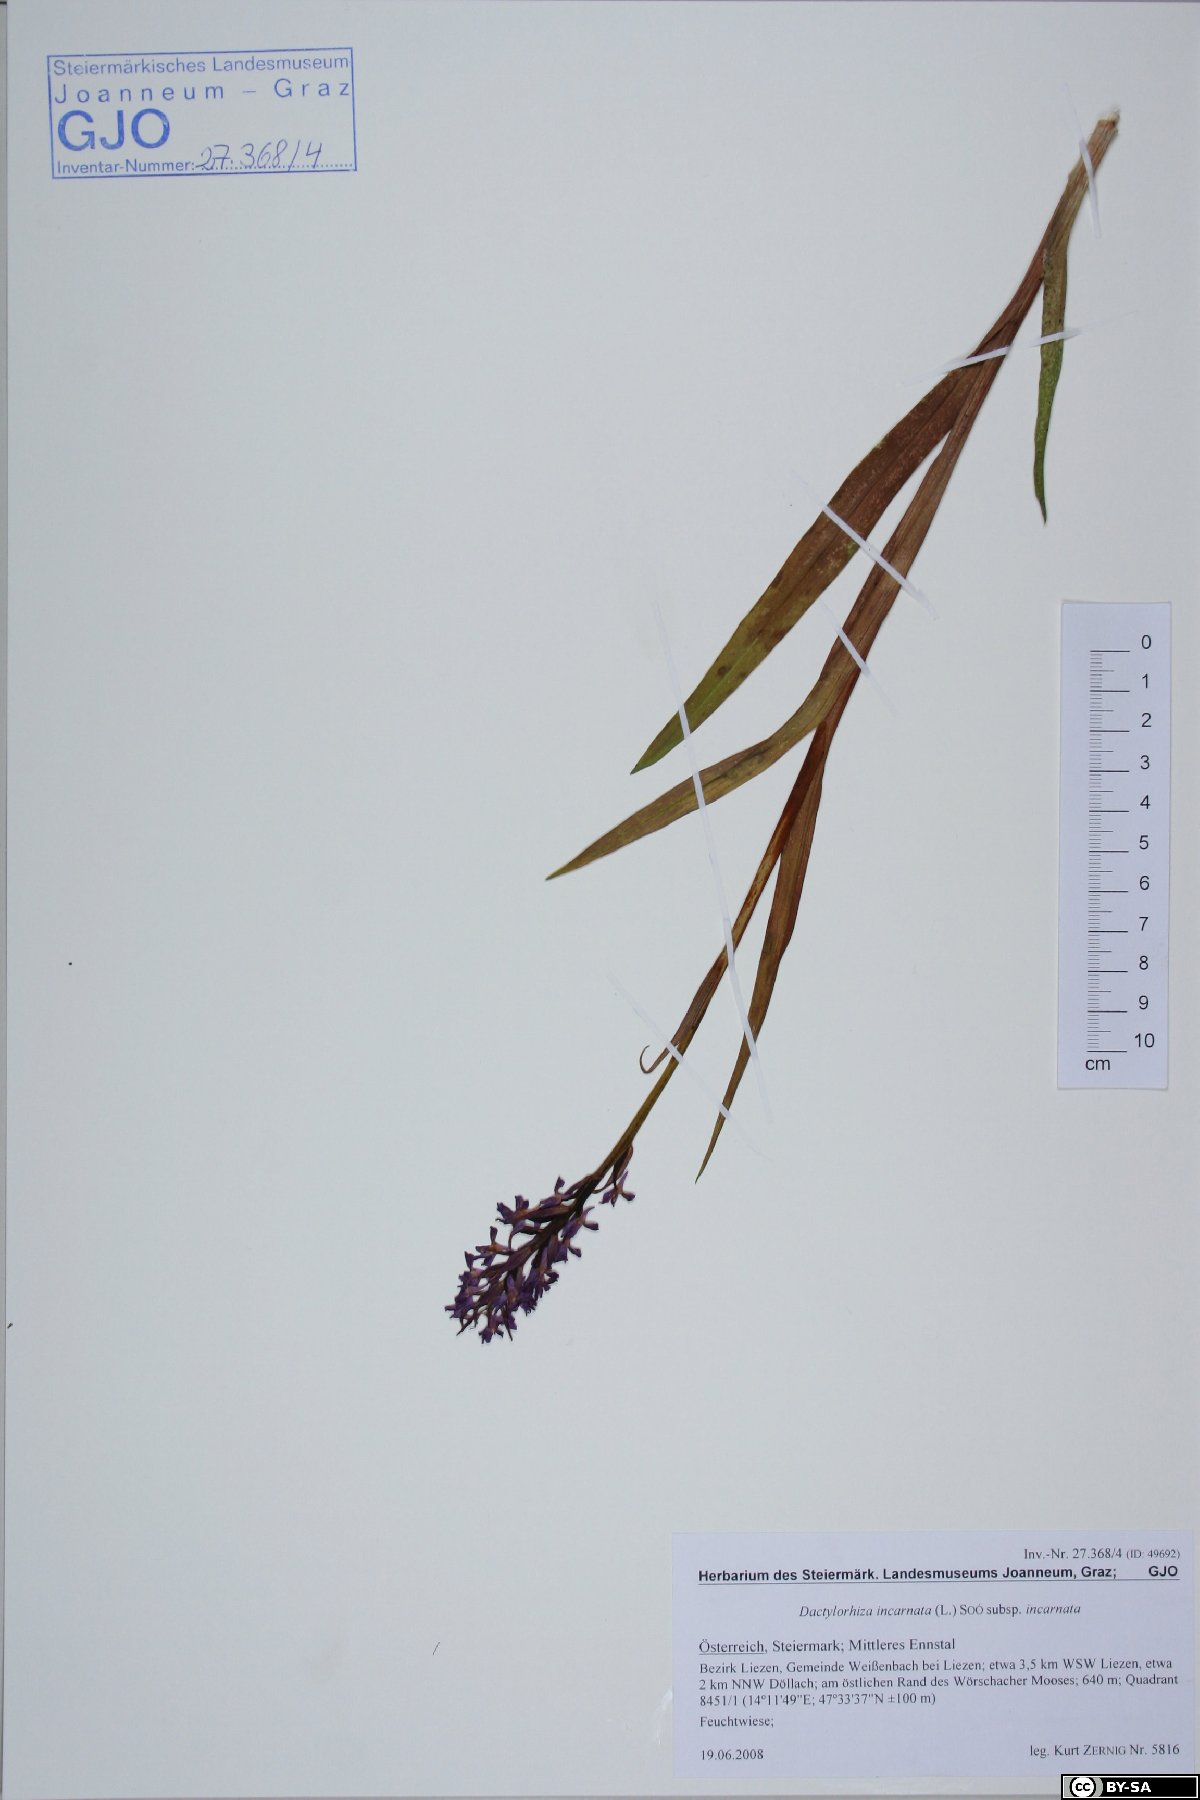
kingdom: Plantae
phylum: Tracheophyta
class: Liliopsida
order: Asparagales
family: Orchidaceae
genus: Dactylorhiza
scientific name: Dactylorhiza incarnata
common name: Early marsh-orchid
